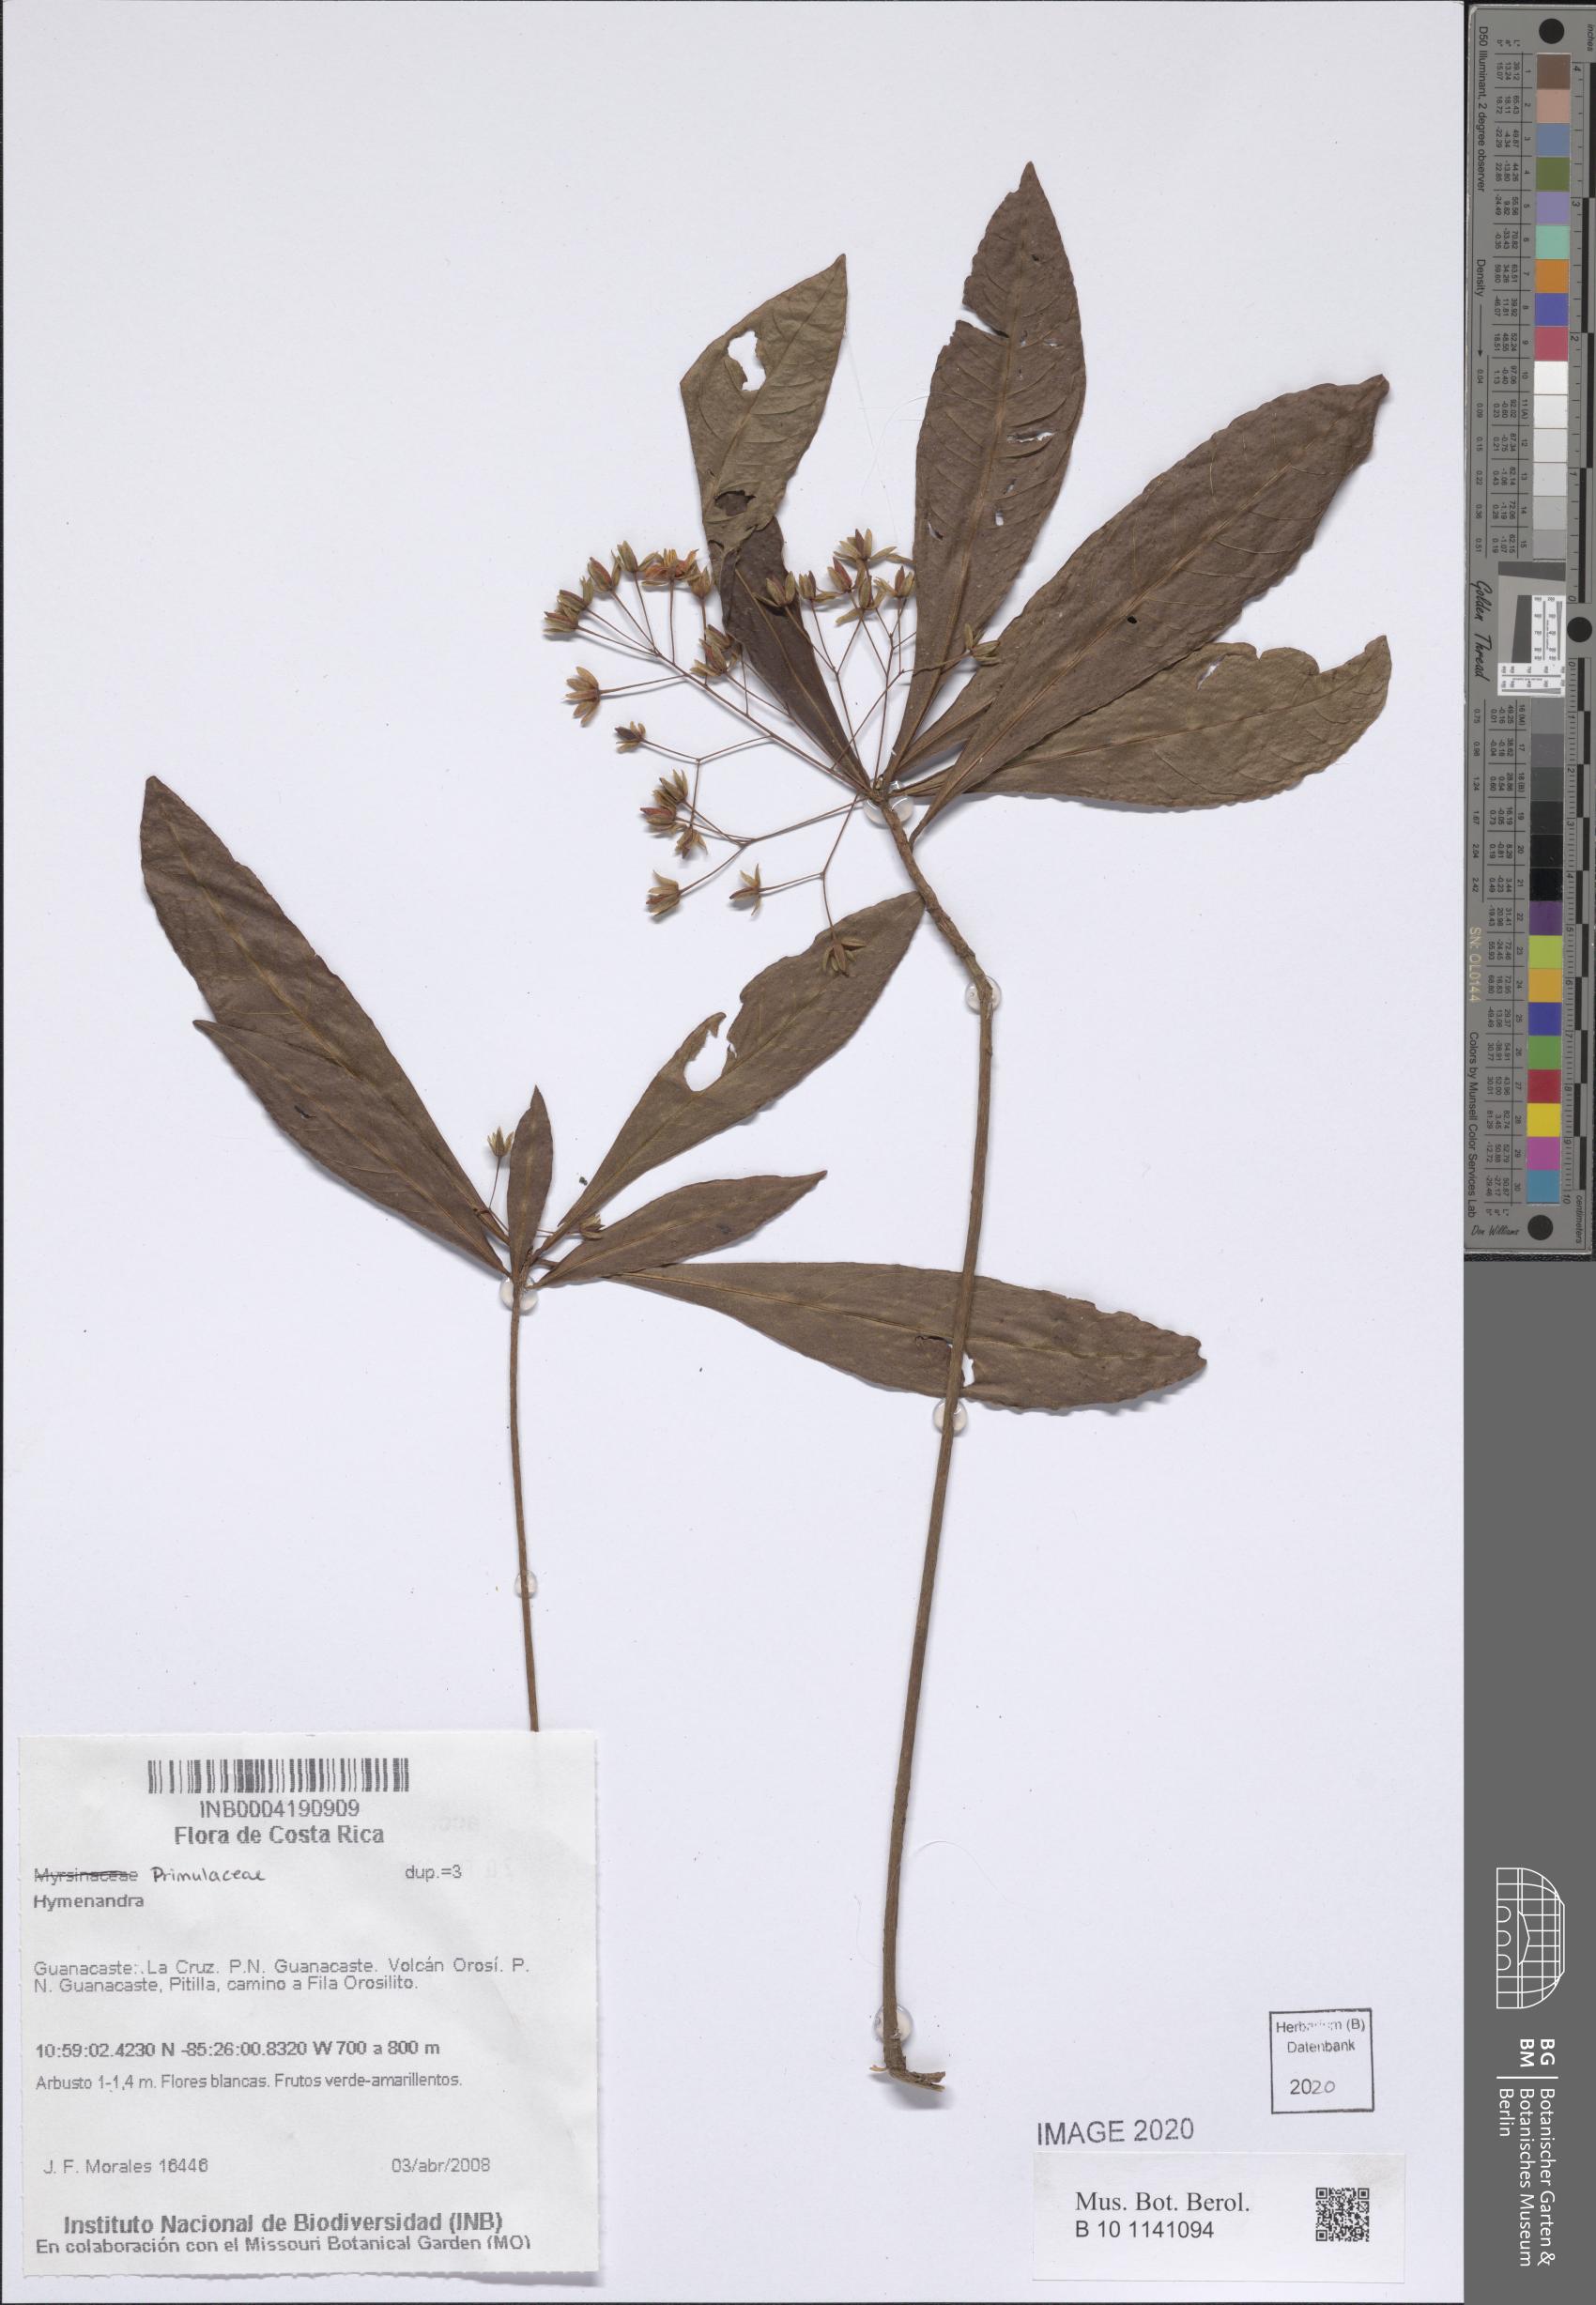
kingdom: Plantae
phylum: Tracheophyta
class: Magnoliopsida
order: Ericales
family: Primulaceae
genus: Hymenandra
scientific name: Hymenandra
